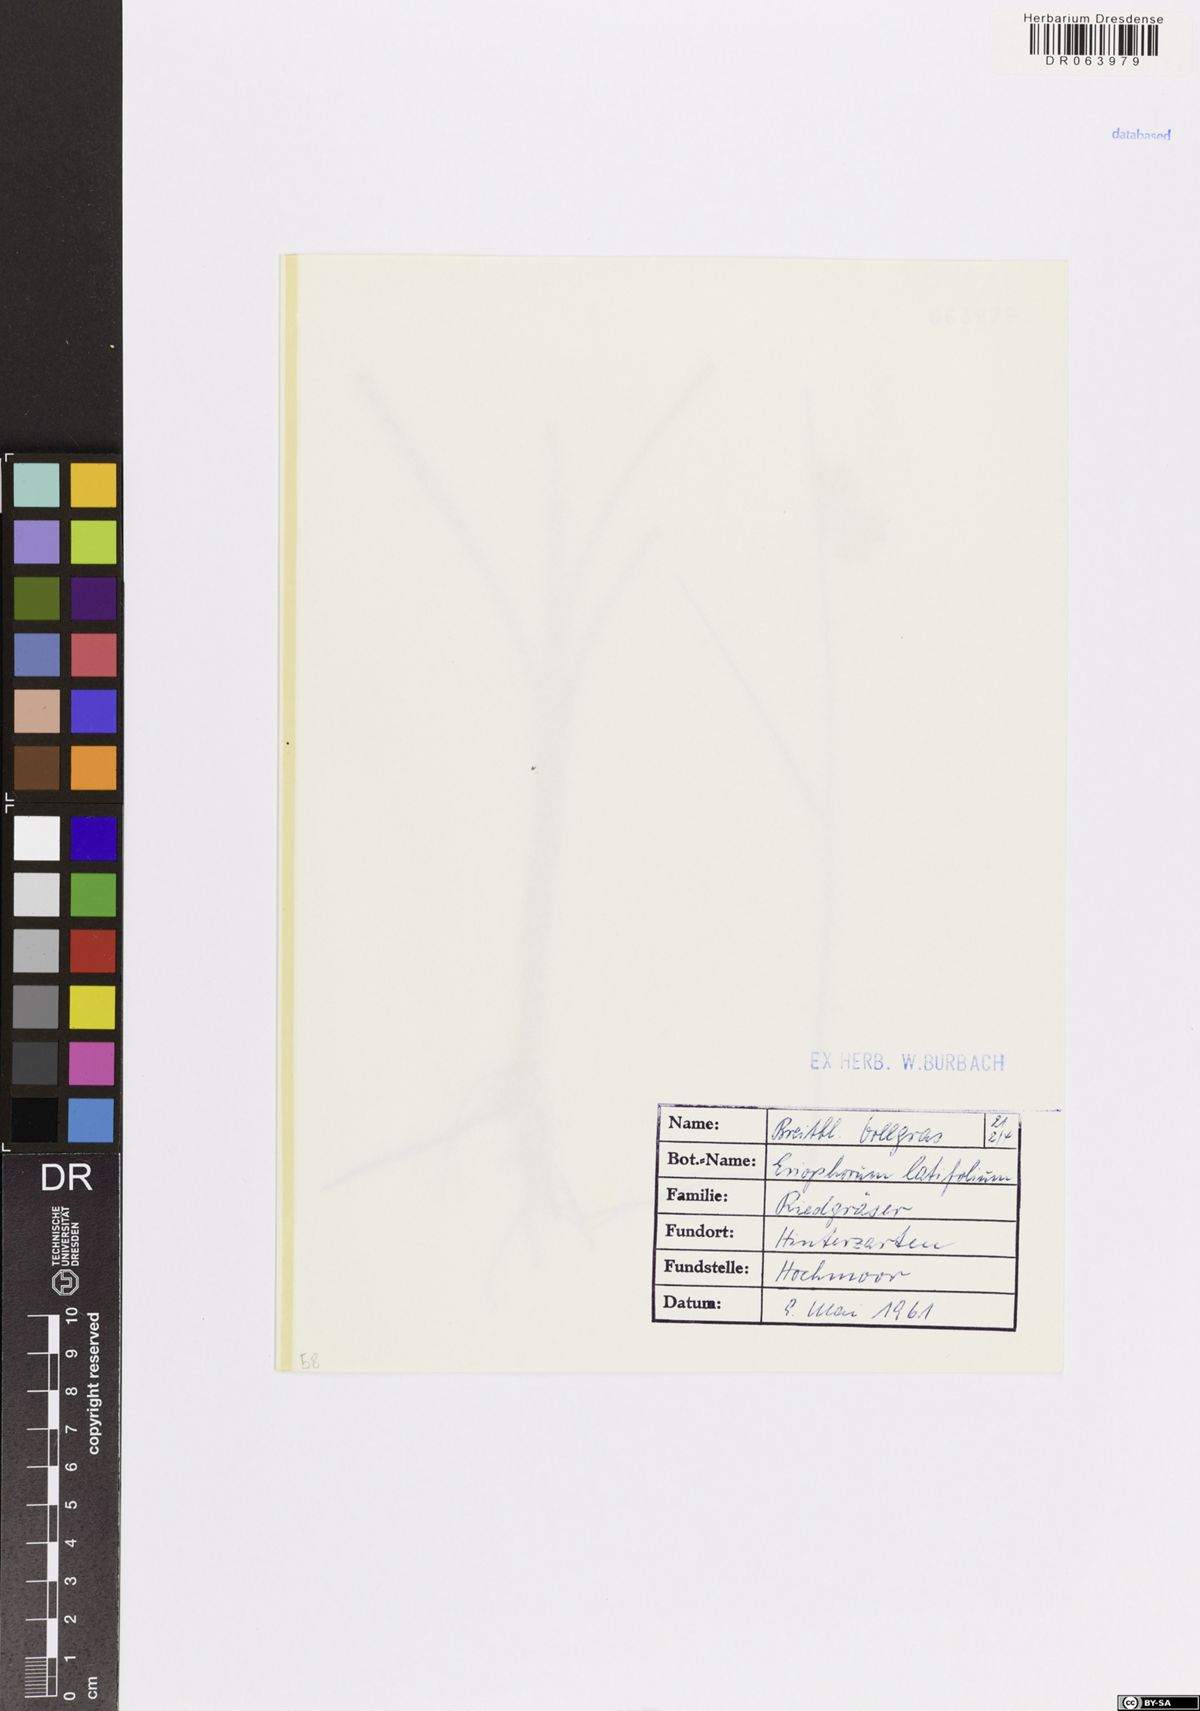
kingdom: Plantae
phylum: Tracheophyta
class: Liliopsida
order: Poales
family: Cyperaceae
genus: Eriophorum
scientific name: Eriophorum latifolium
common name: Broad-leaved cottongrass
